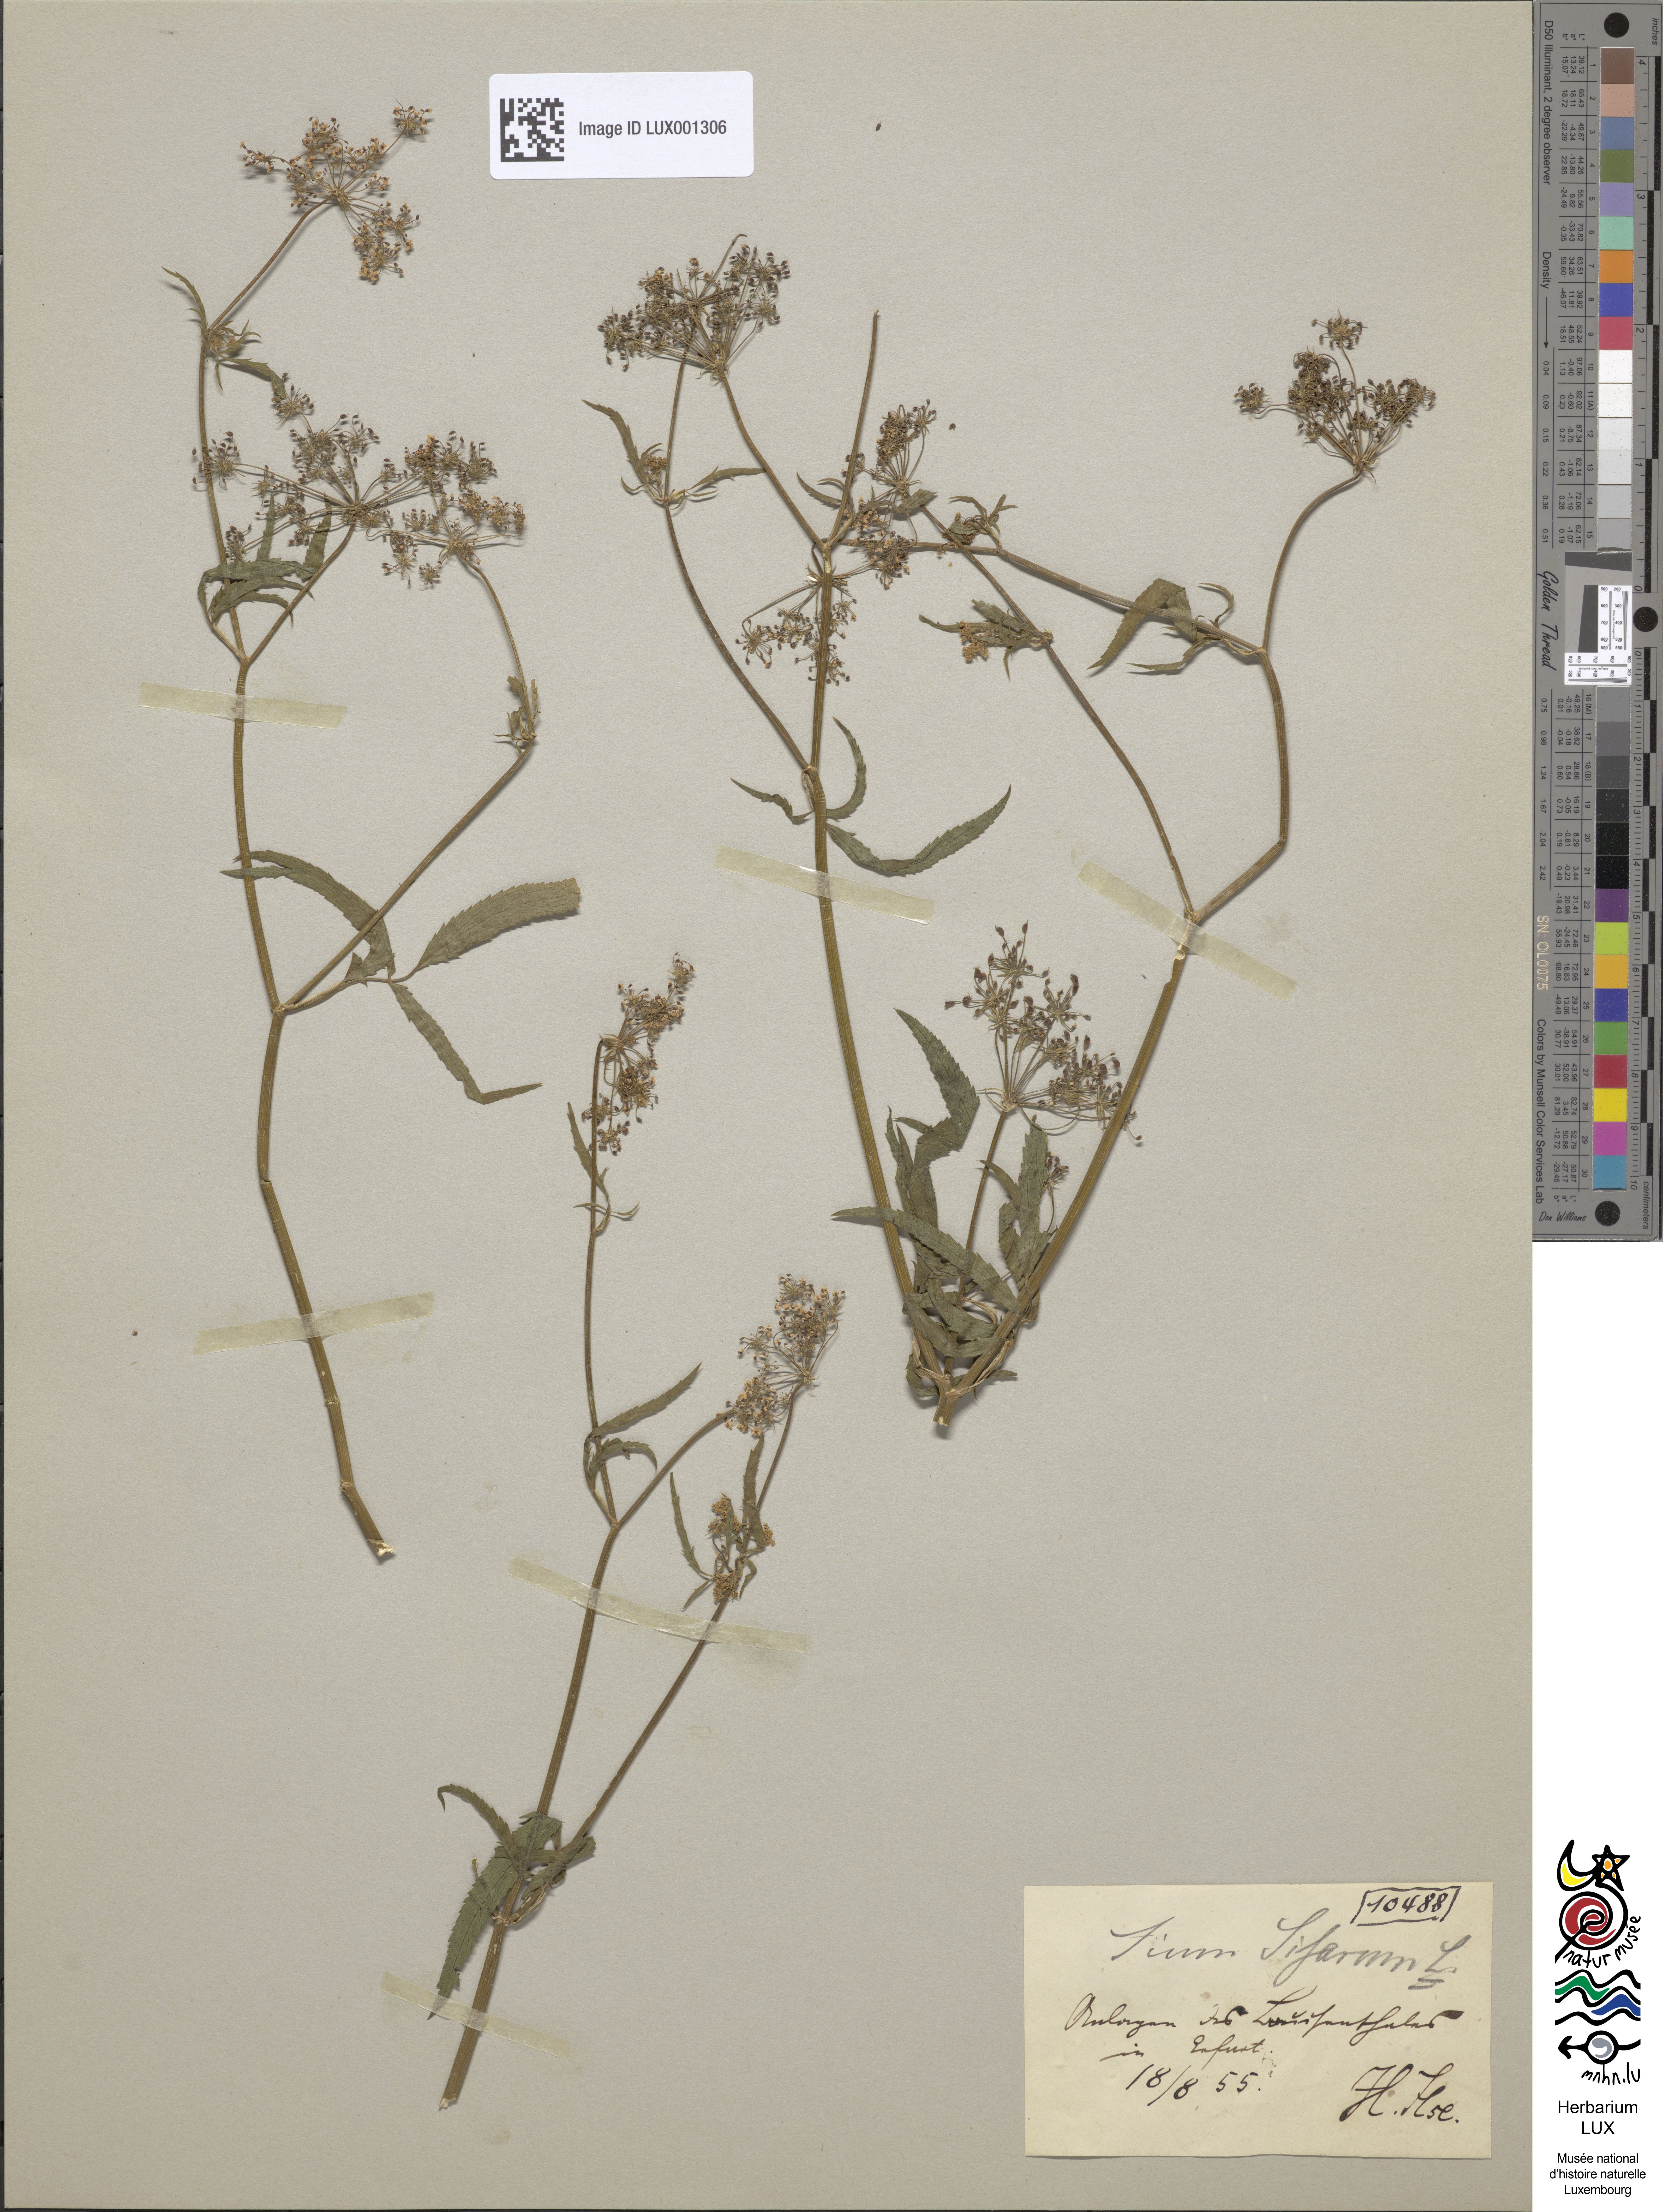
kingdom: Plantae
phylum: Tracheophyta
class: Magnoliopsida
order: Apiales
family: Apiaceae
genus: Sium
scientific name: Sium sisarum
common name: Skirret
